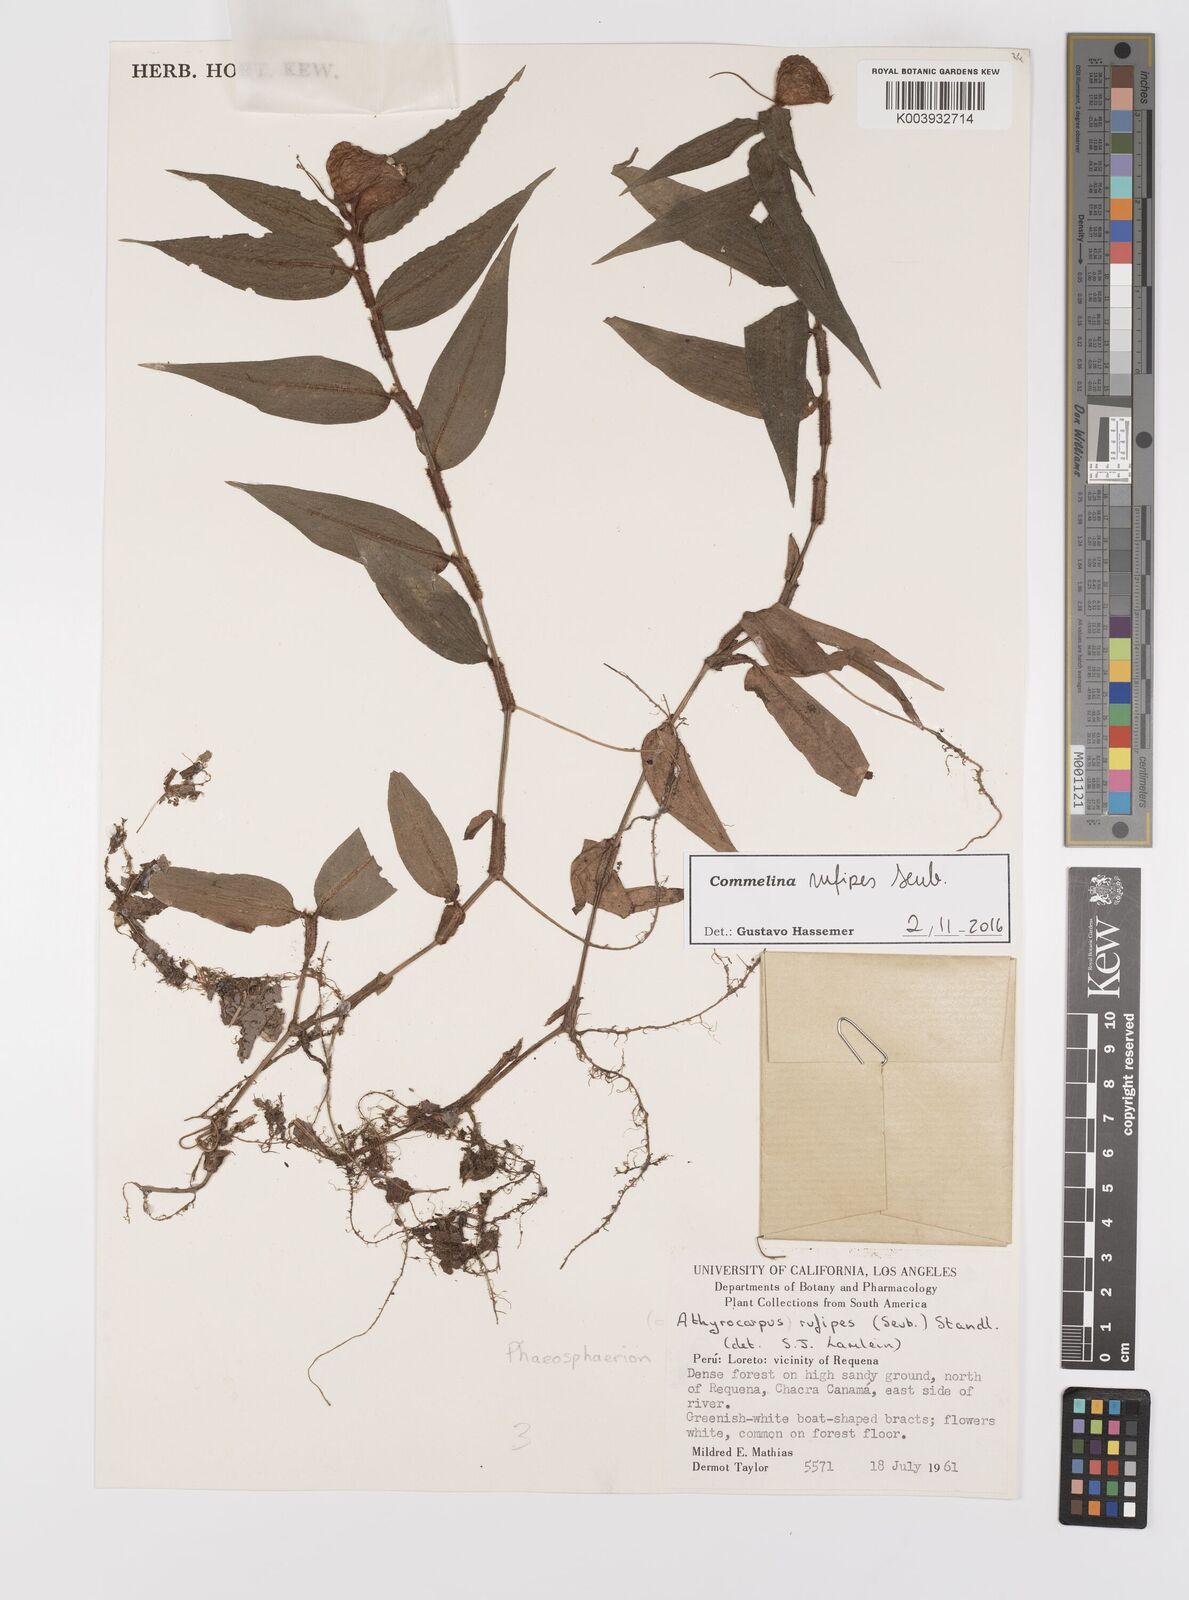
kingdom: Plantae
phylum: Tracheophyta
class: Liliopsida
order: Commelinales
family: Commelinaceae
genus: Commelina
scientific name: Commelina rufipes
